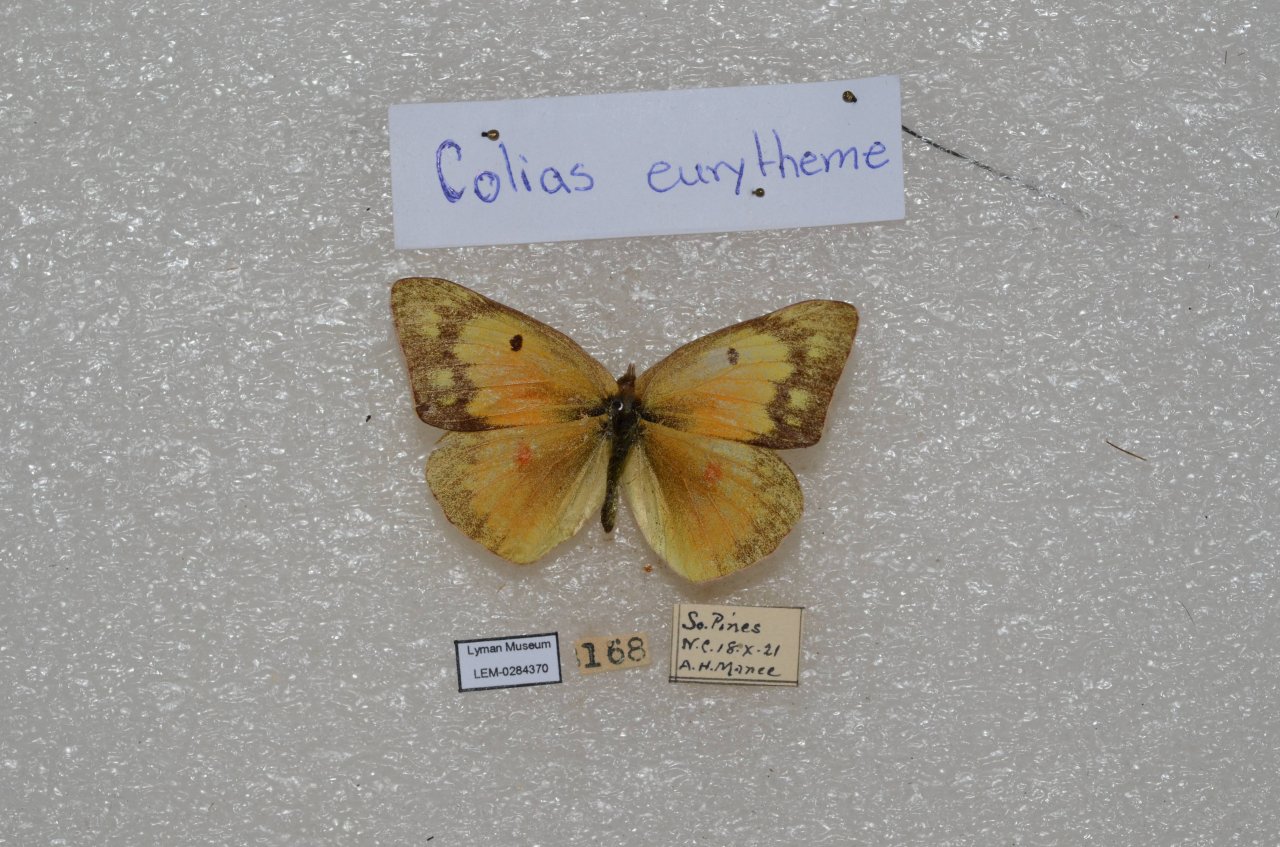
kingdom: Animalia
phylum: Arthropoda
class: Insecta
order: Lepidoptera
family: Pieridae
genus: Colias
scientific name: Colias eurytheme
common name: Orange Sulphur
